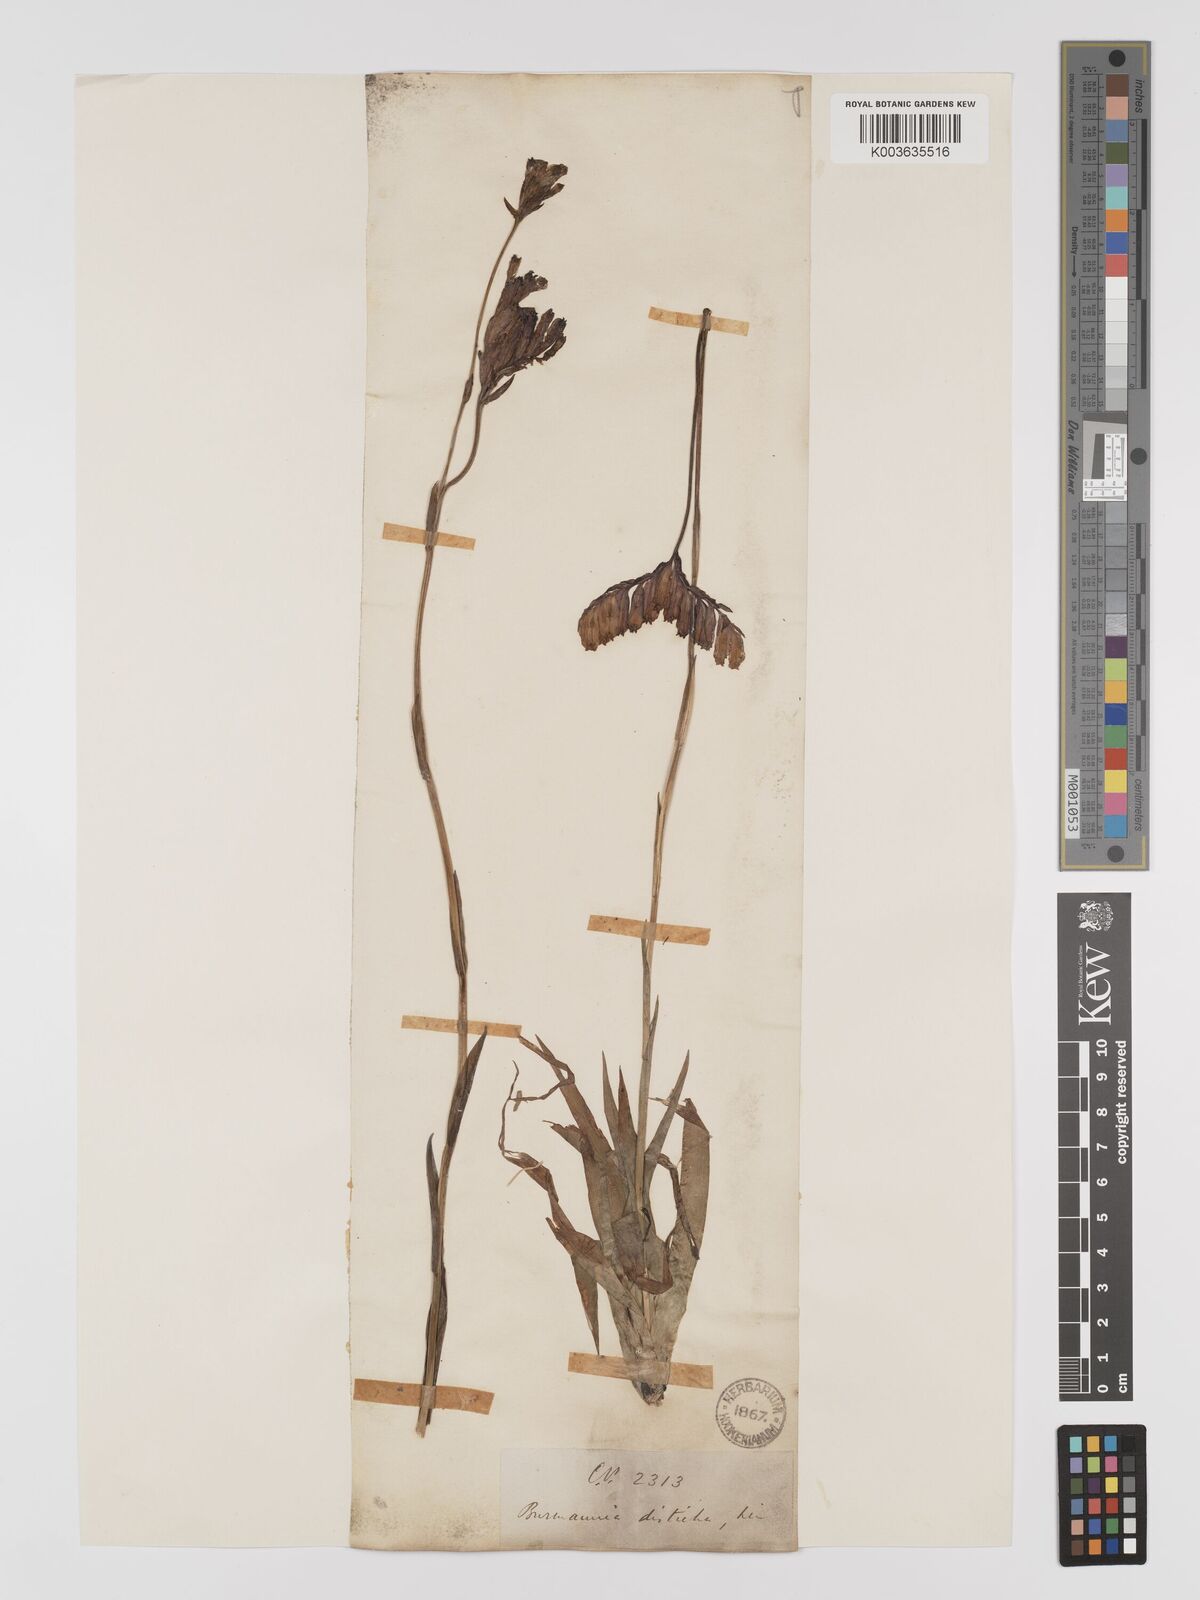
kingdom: Plantae
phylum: Tracheophyta
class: Liliopsida
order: Dioscoreales
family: Burmanniaceae
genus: Burmannia
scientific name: Burmannia disticha
